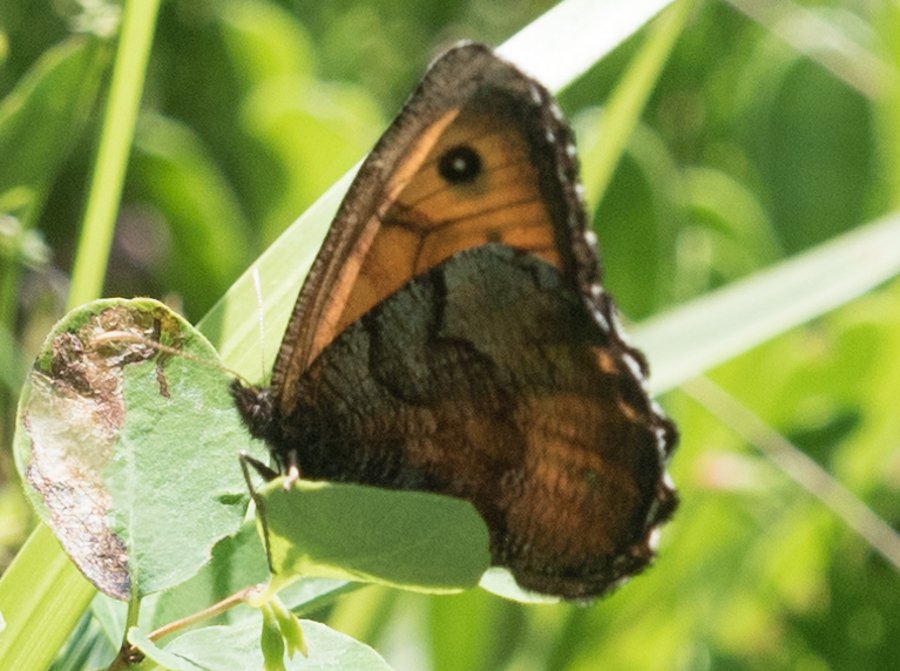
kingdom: Animalia
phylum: Arthropoda
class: Insecta
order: Lepidoptera
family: Nymphalidae
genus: Oeneis
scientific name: Oeneis macounii
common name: Macoun's Arctic
